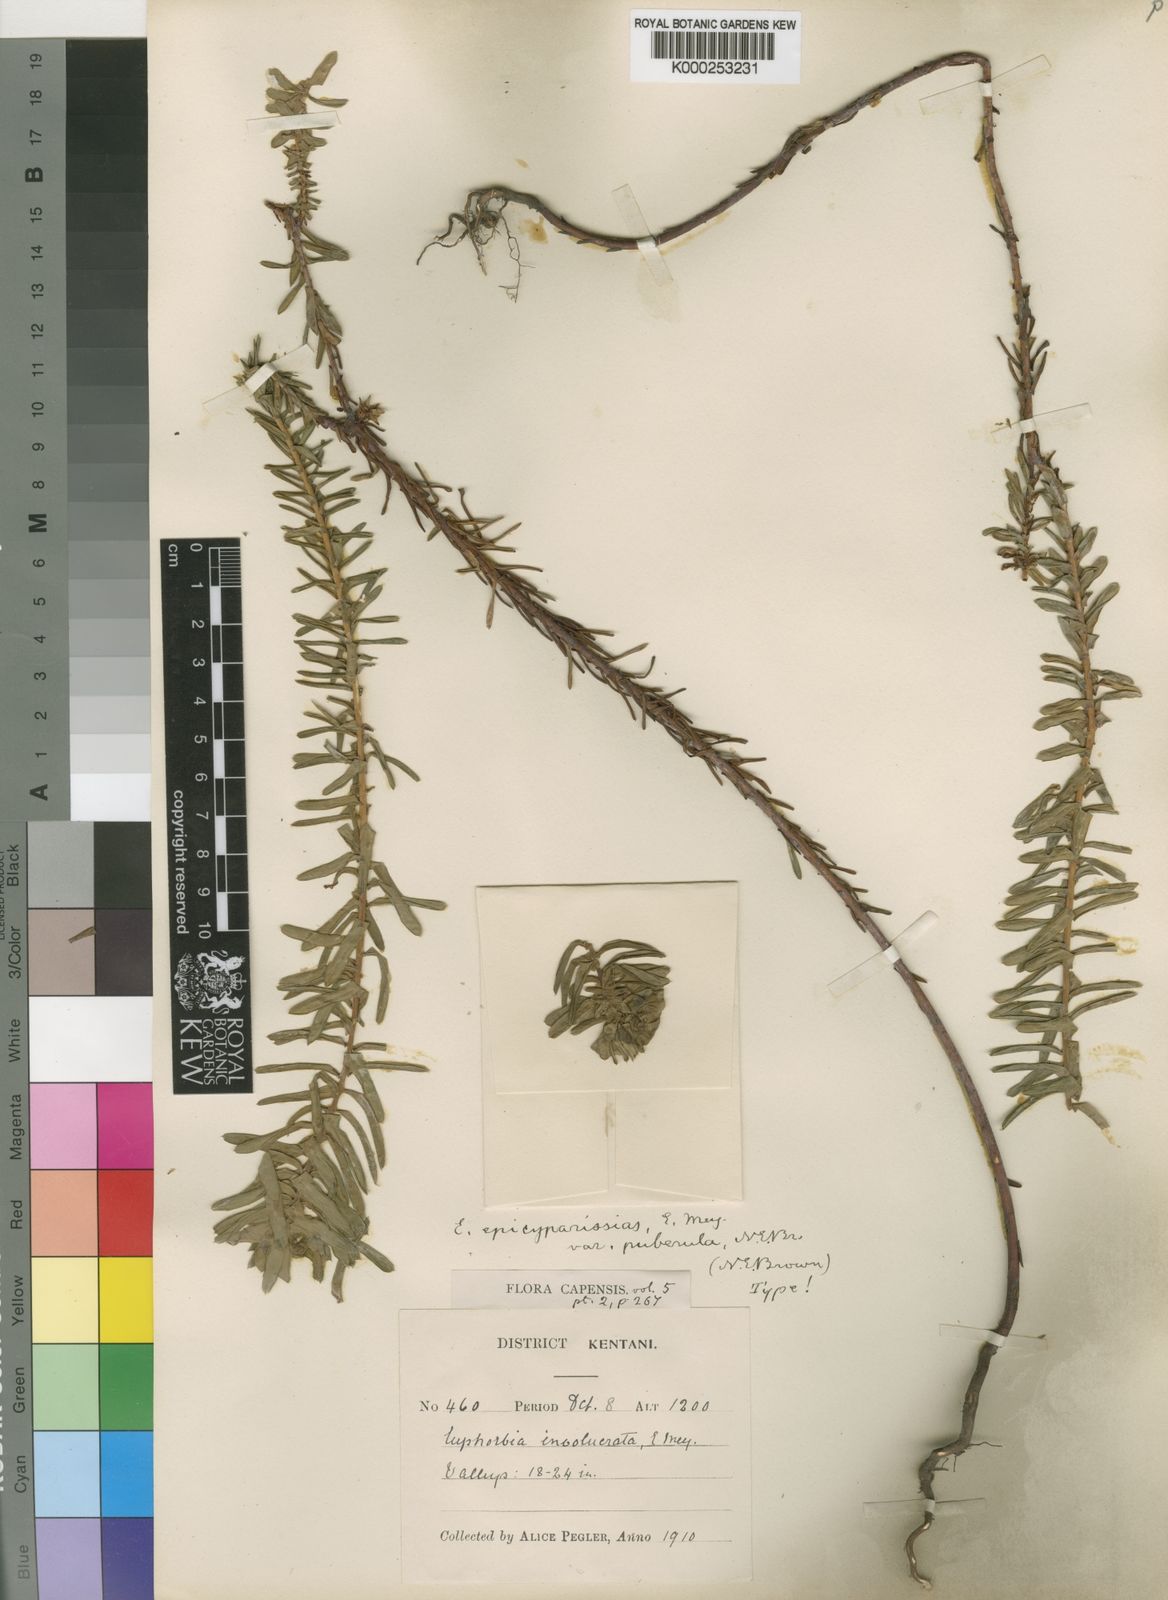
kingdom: Plantae
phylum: Tracheophyta
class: Magnoliopsida
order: Malpighiales
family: Euphorbiaceae
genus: Euphorbia
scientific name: Euphorbia
